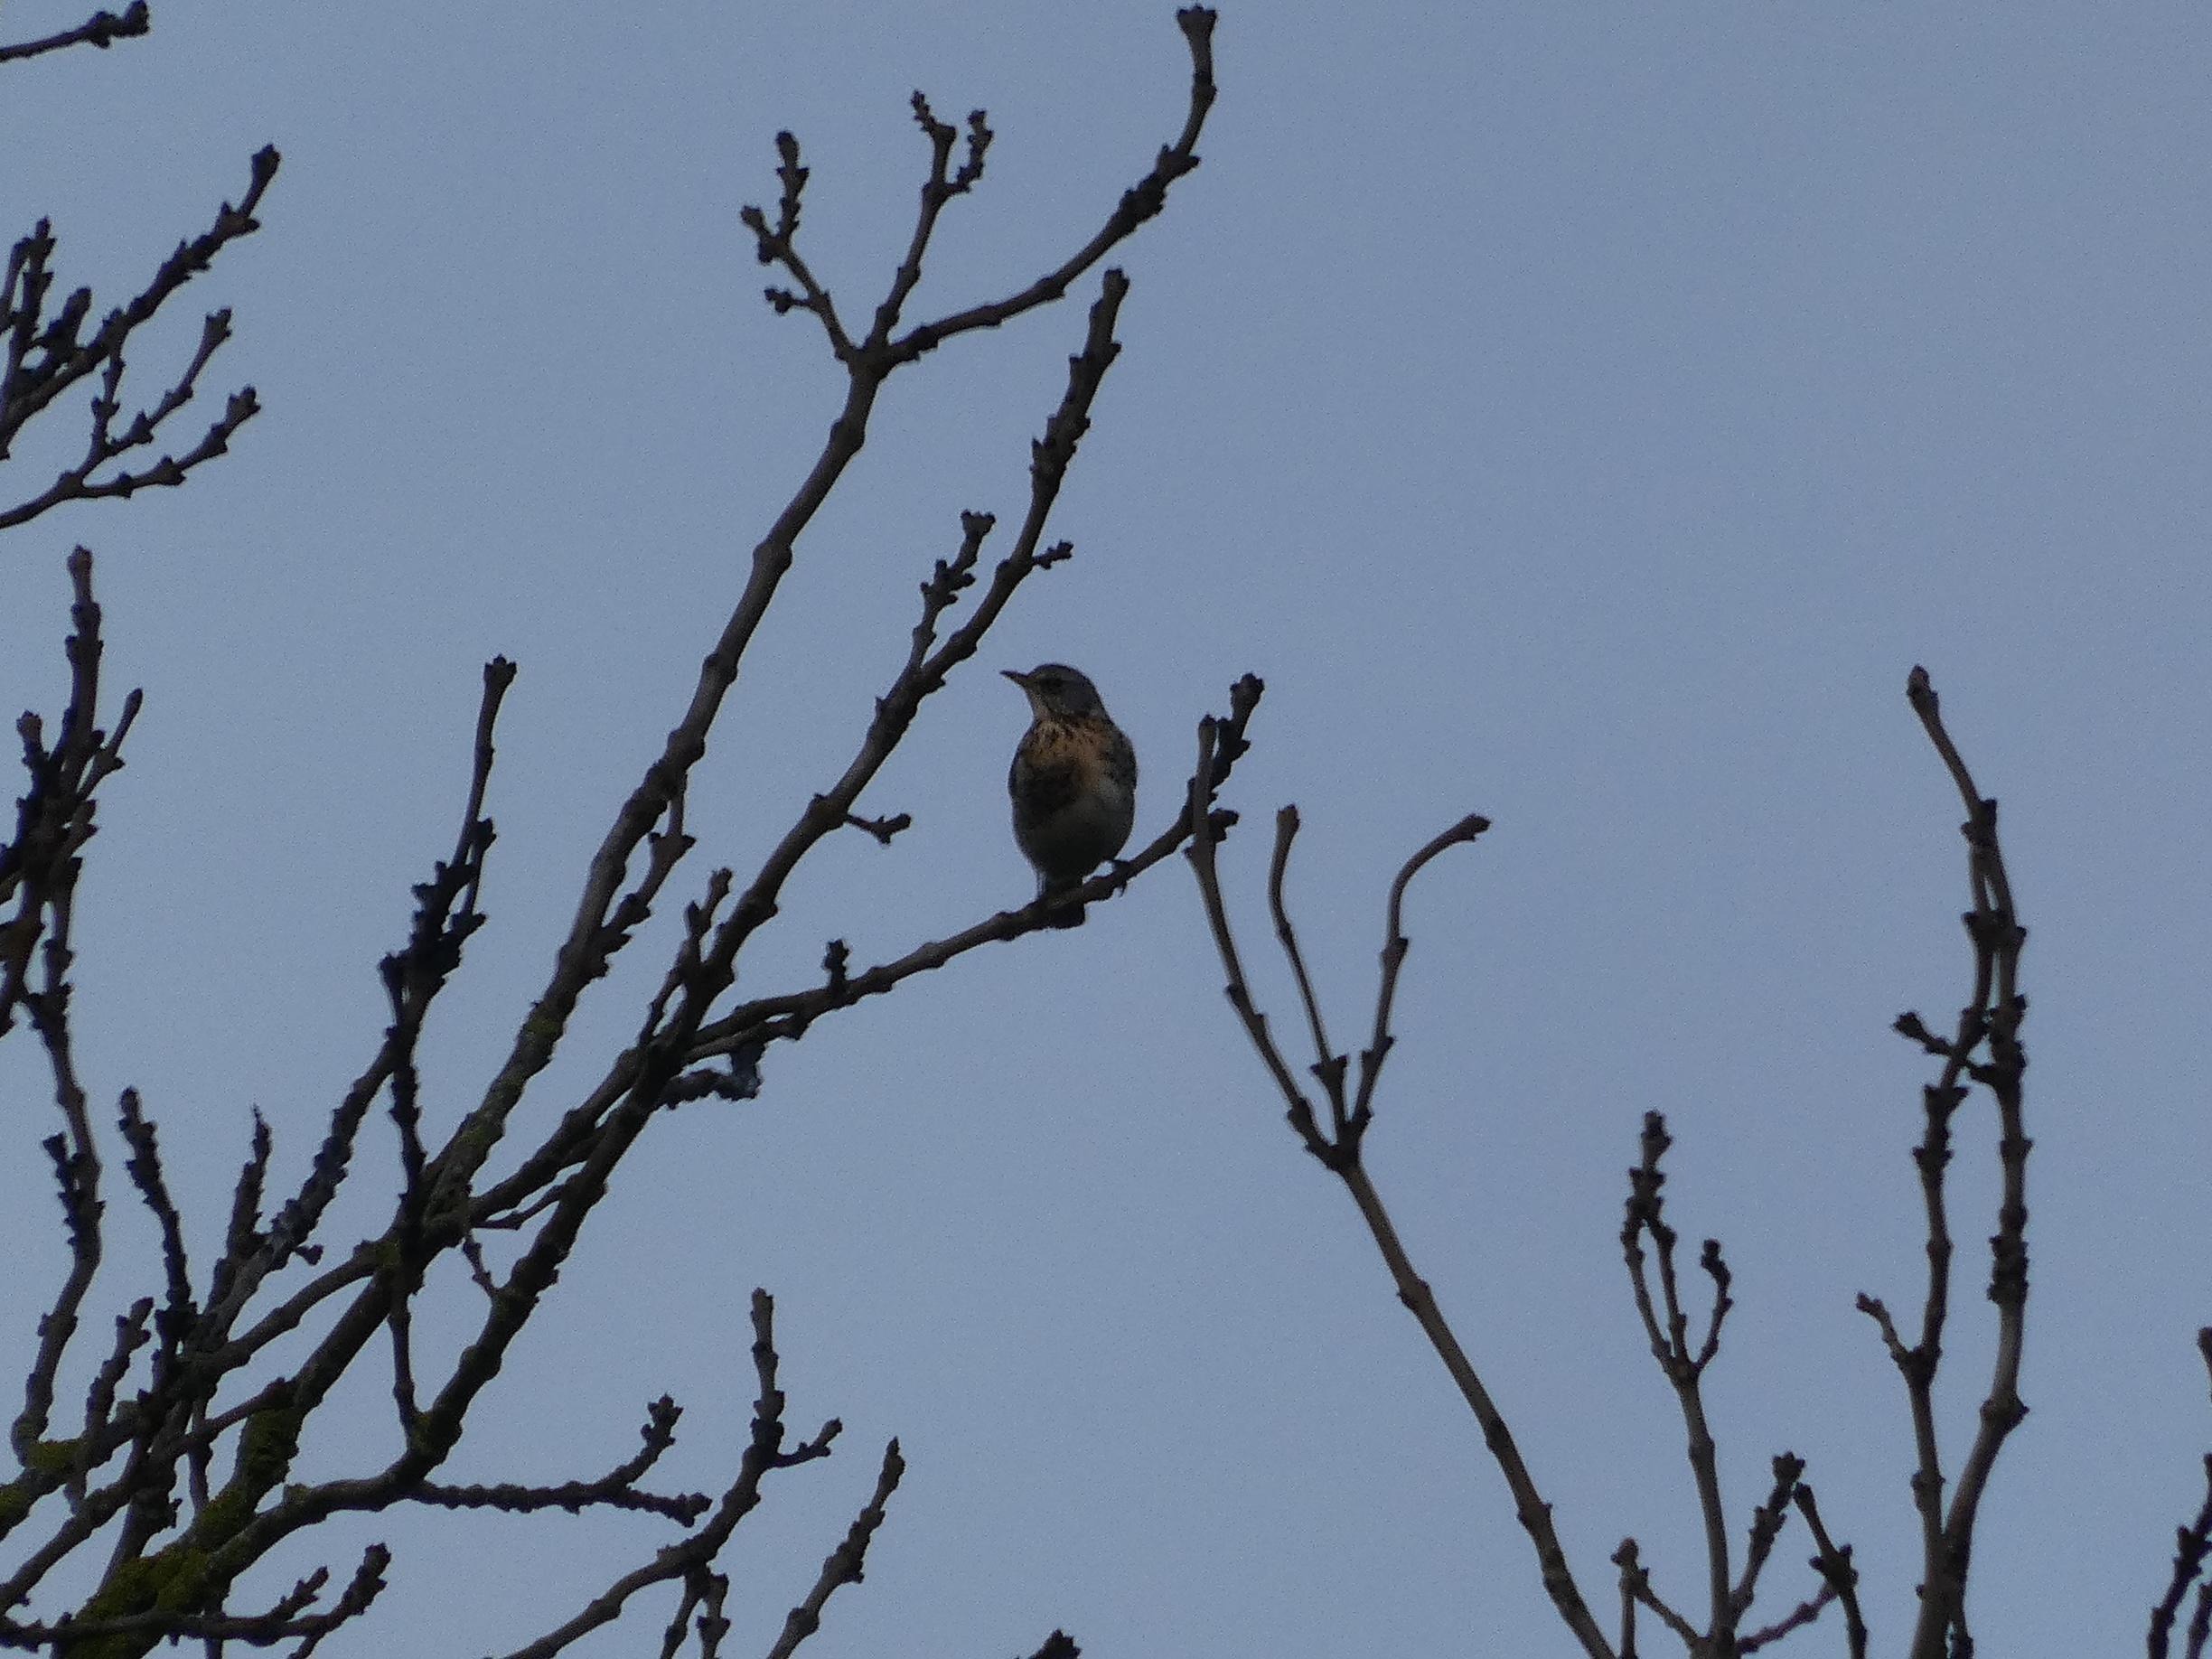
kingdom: Animalia
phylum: Chordata
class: Aves
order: Passeriformes
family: Turdidae
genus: Turdus
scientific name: Turdus pilaris
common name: Sjagger
